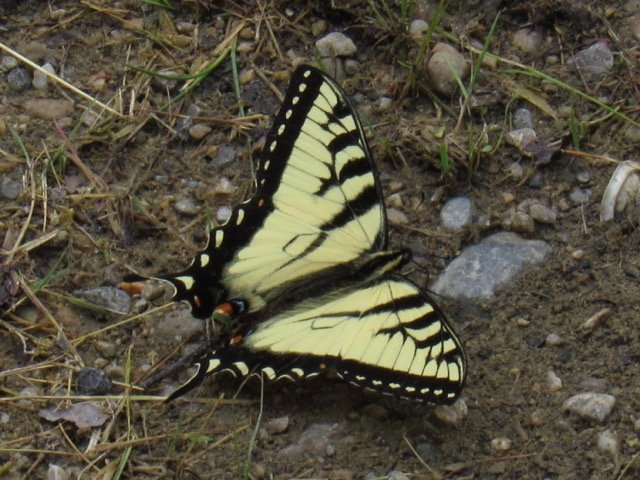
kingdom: Animalia
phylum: Arthropoda
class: Insecta
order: Lepidoptera
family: Papilionidae
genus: Pterourus
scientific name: Pterourus
